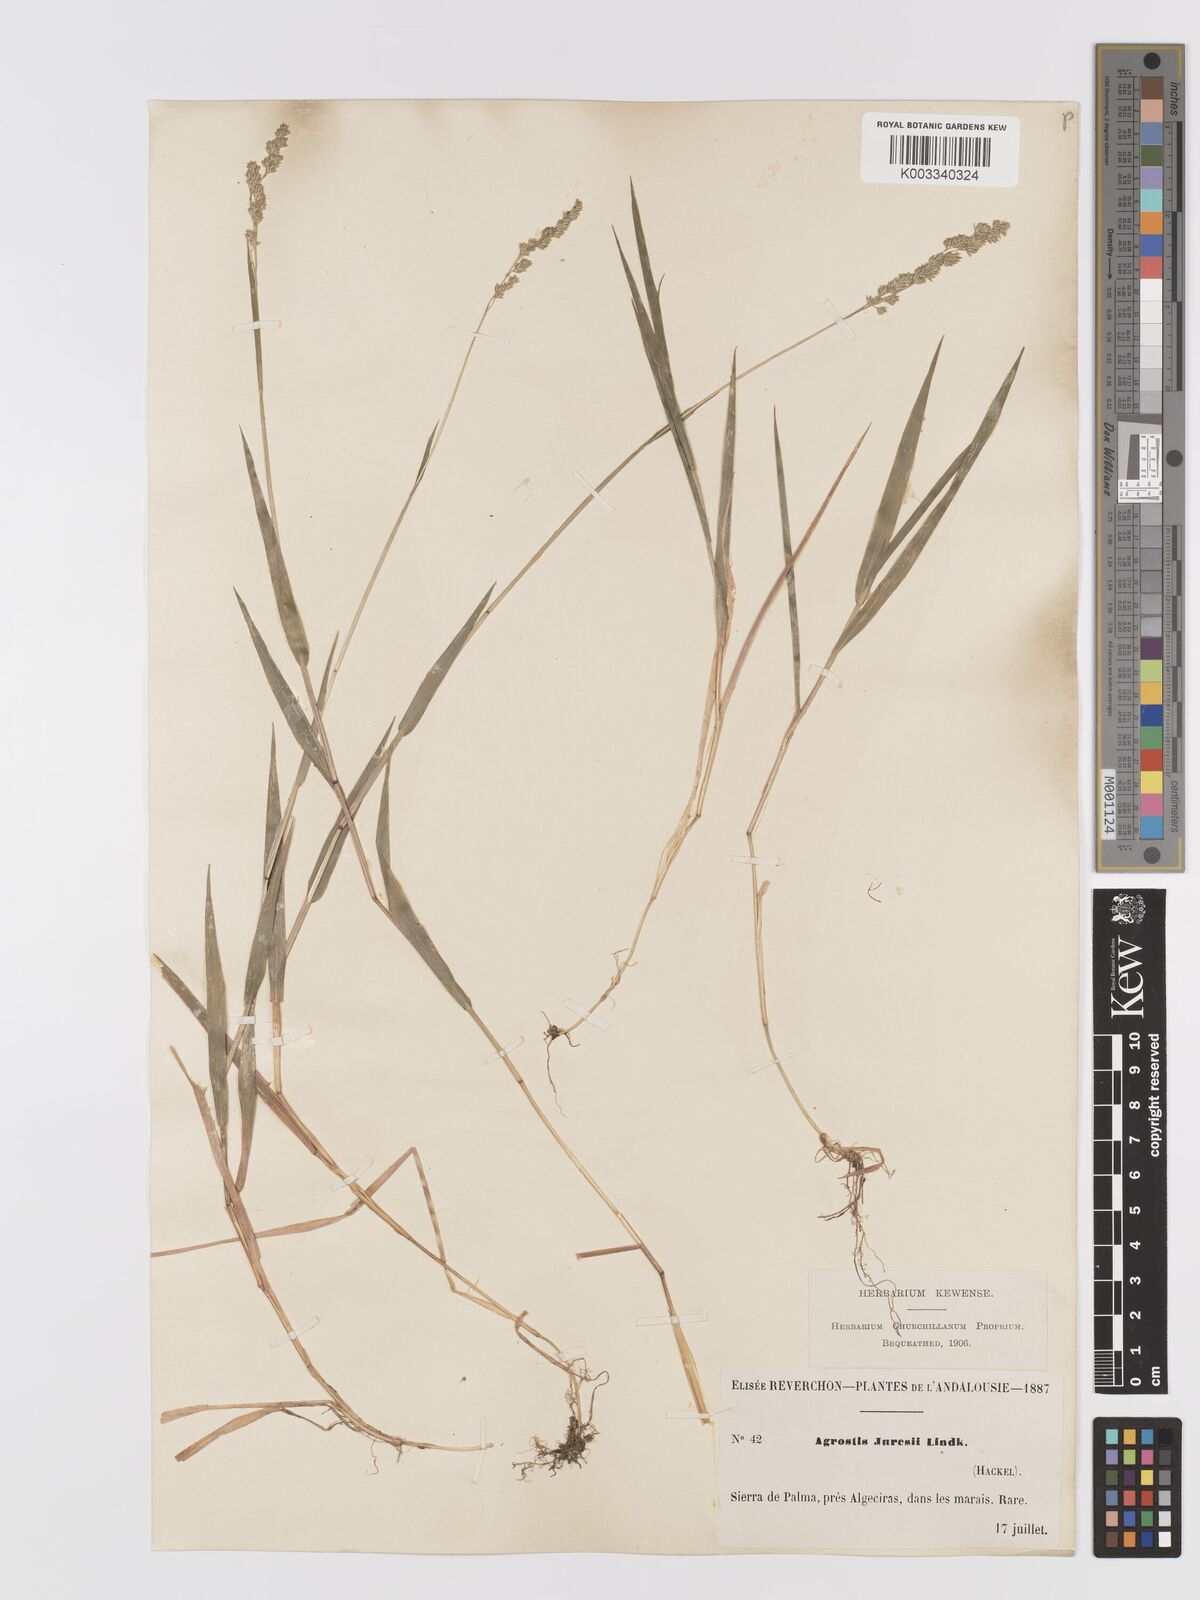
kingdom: Plantae
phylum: Tracheophyta
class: Liliopsida
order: Poales
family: Poaceae
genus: Agrostis
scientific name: Agrostis juressi
